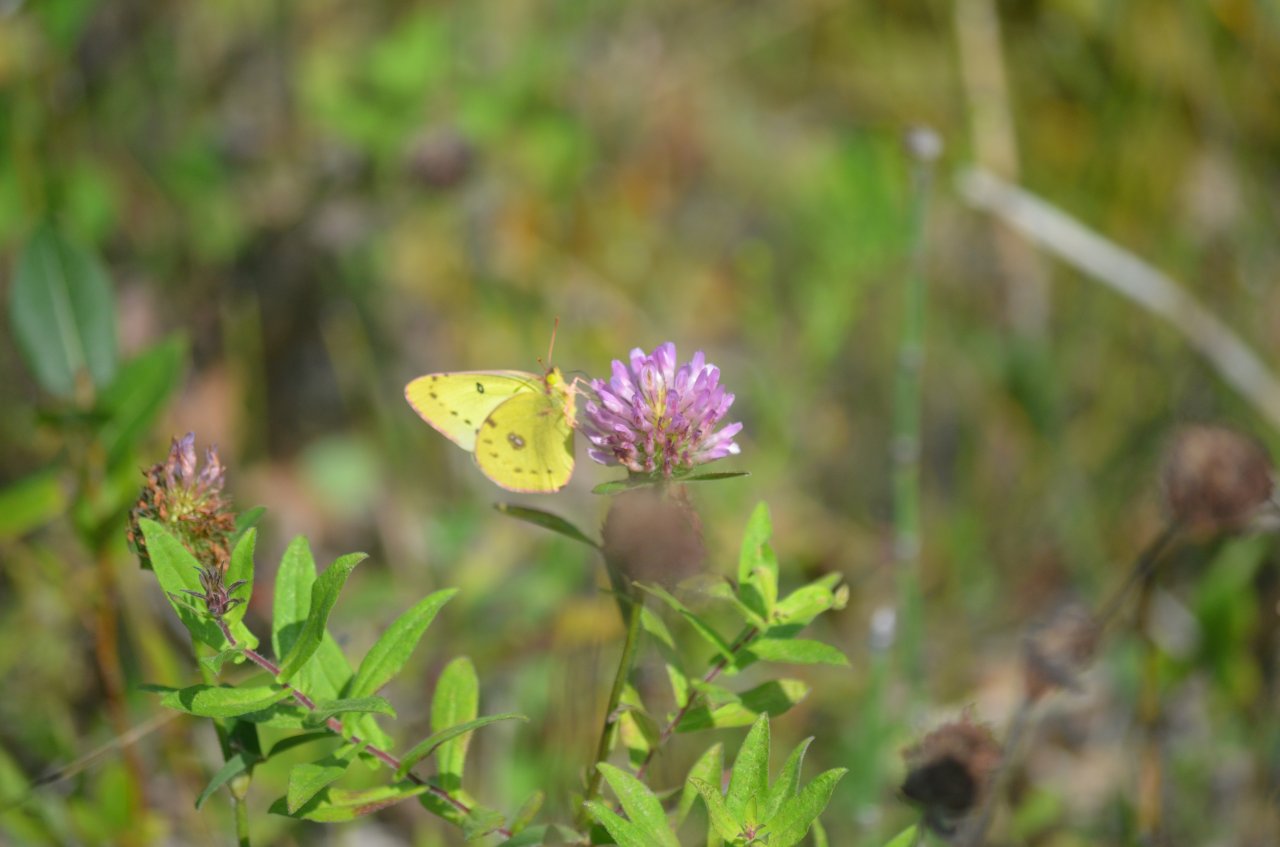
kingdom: Animalia
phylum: Arthropoda
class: Insecta
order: Lepidoptera
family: Pieridae
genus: Colias
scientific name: Colias philodice
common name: Clouded Sulphur
